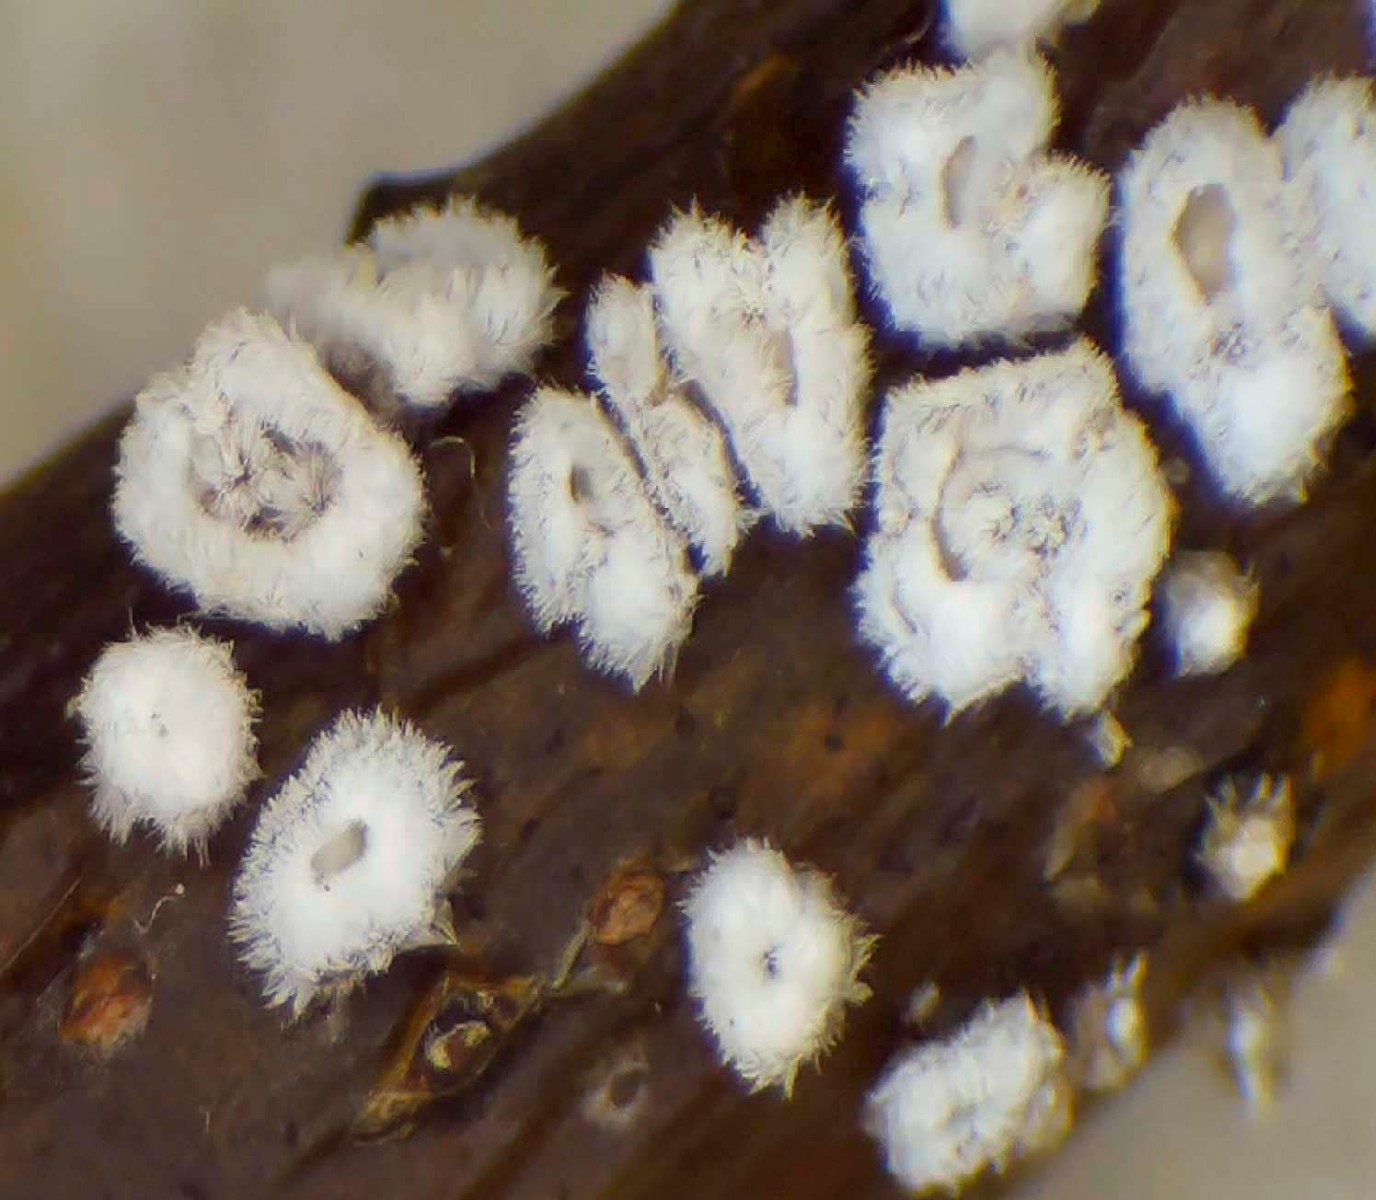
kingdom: Fungi
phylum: Basidiomycota
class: Agaricomycetes
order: Agaricales
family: Niaceae
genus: Lachnella
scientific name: Lachnella alboviolascens
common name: grå frynserede
